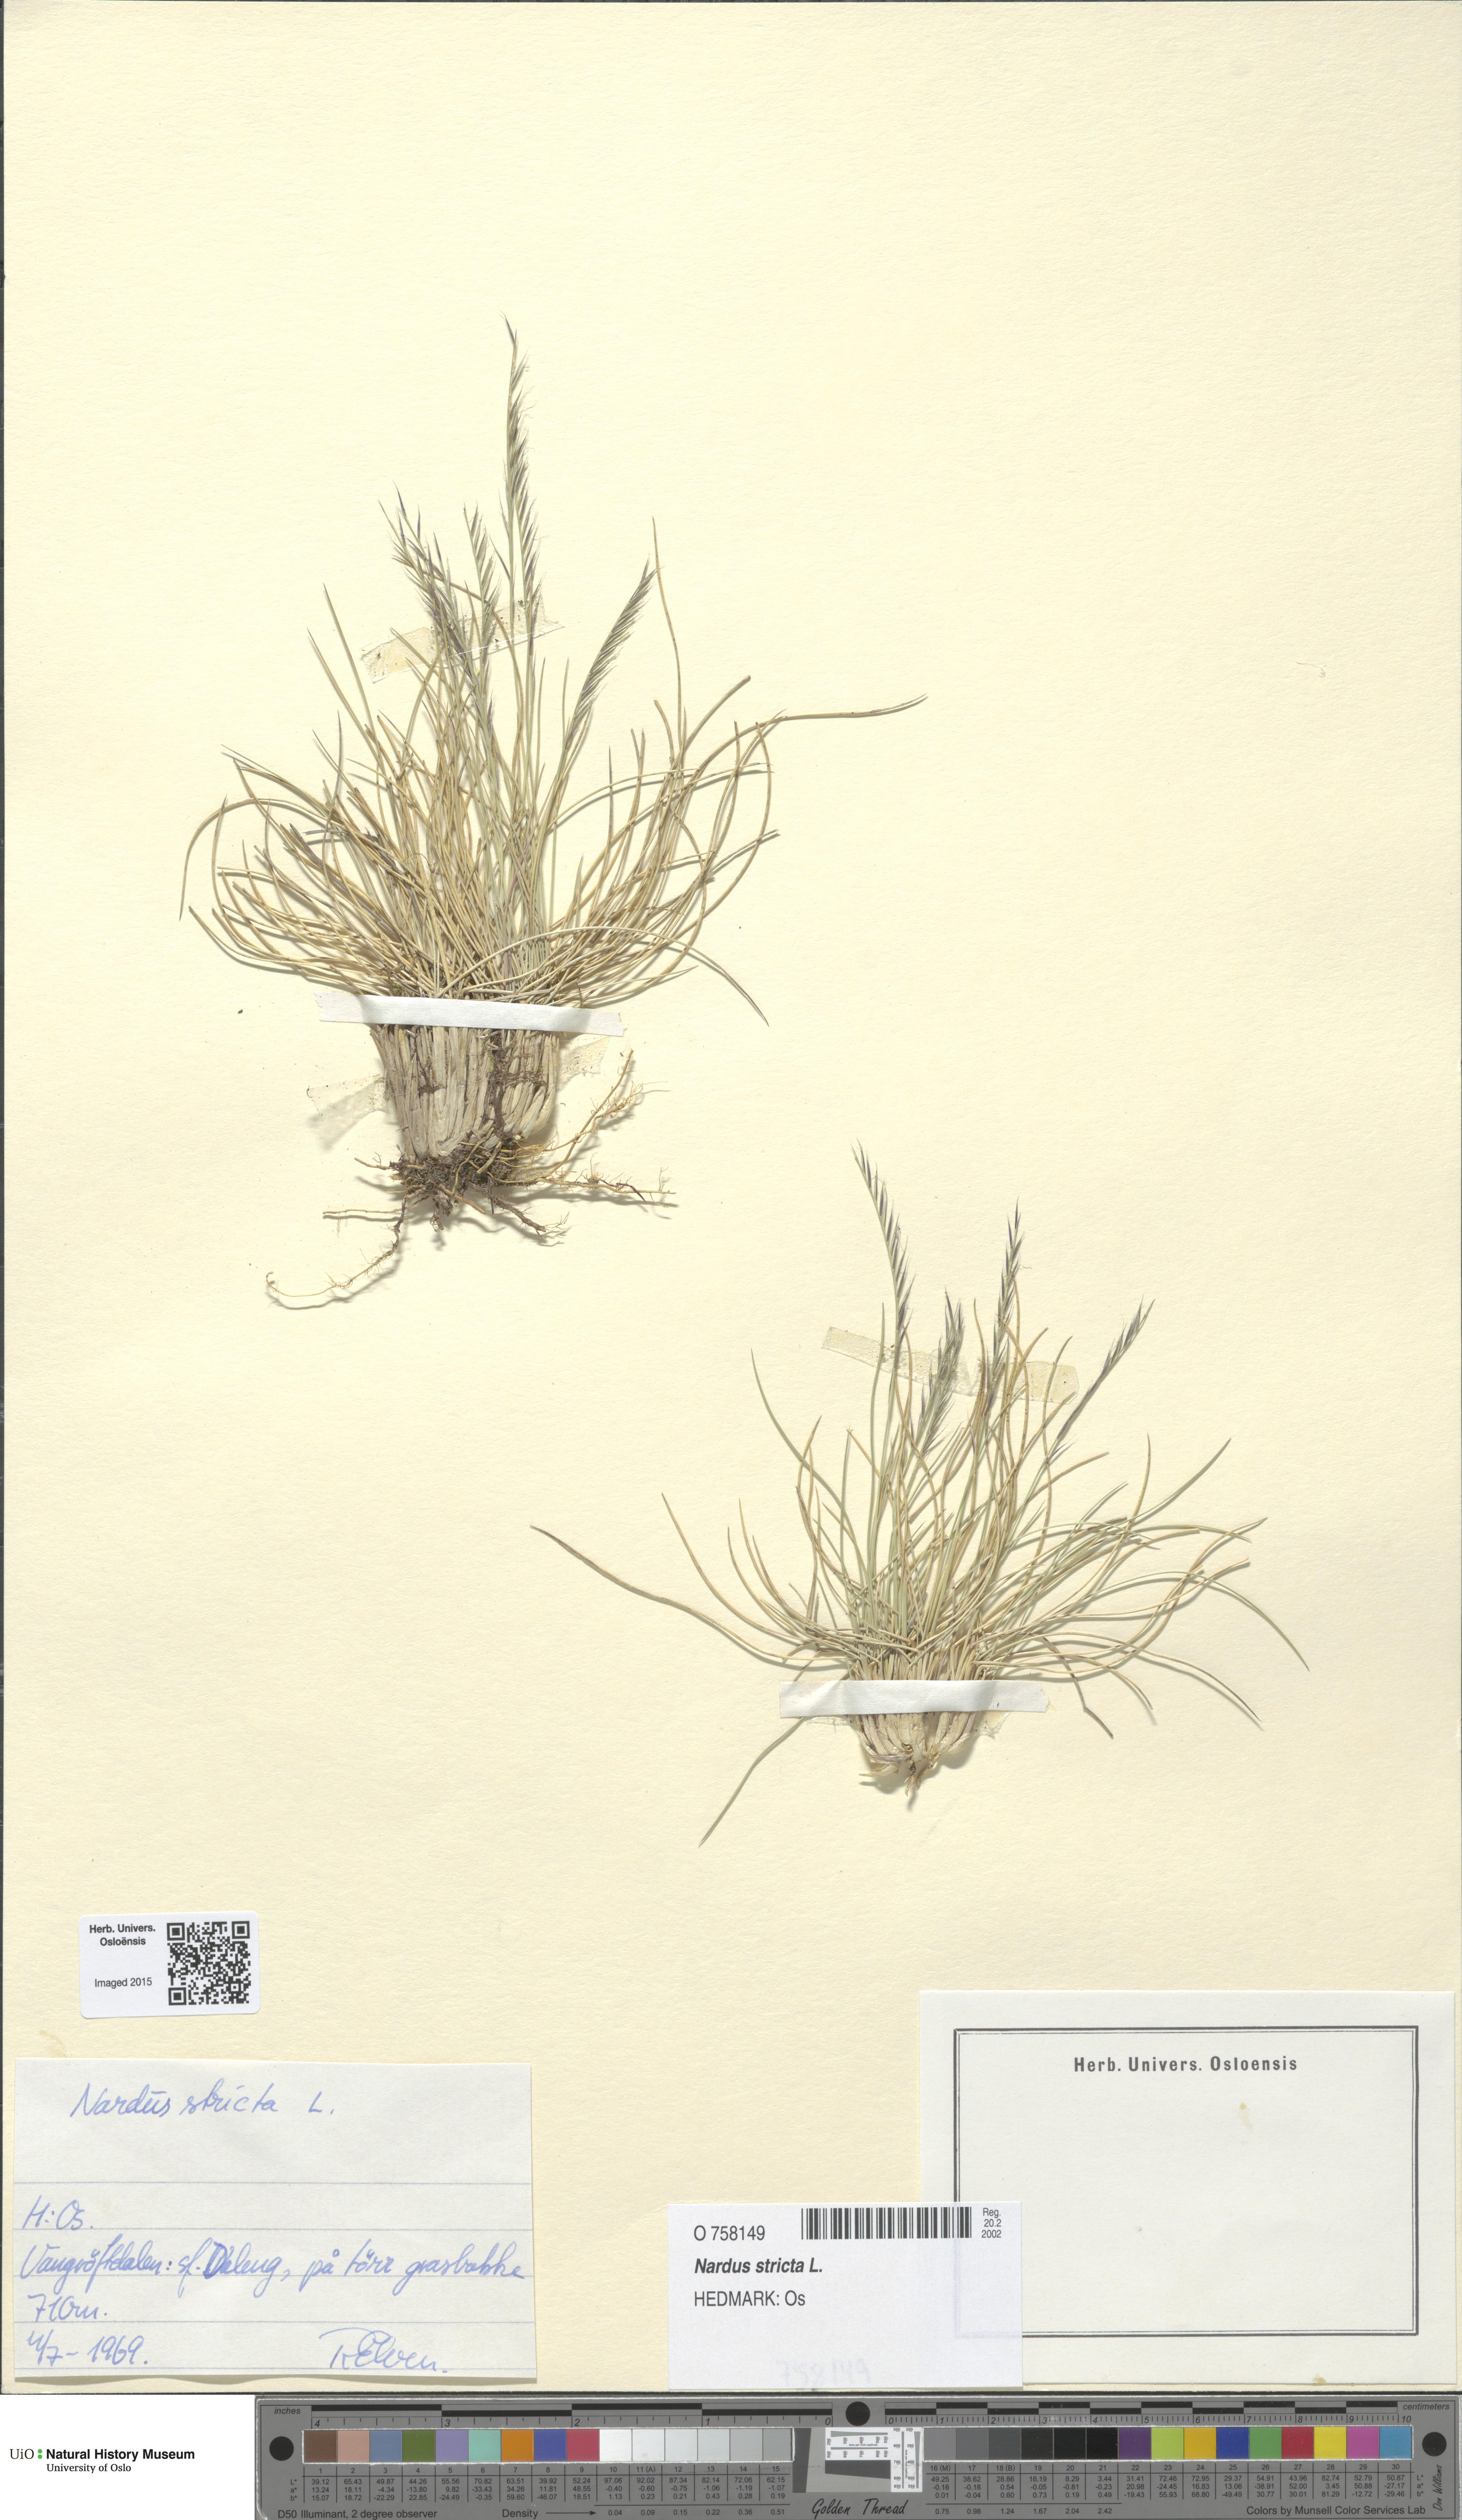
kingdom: Plantae
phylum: Tracheophyta
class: Liliopsida
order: Poales
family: Poaceae
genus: Nardus
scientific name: Nardus stricta
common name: Mat-grass
